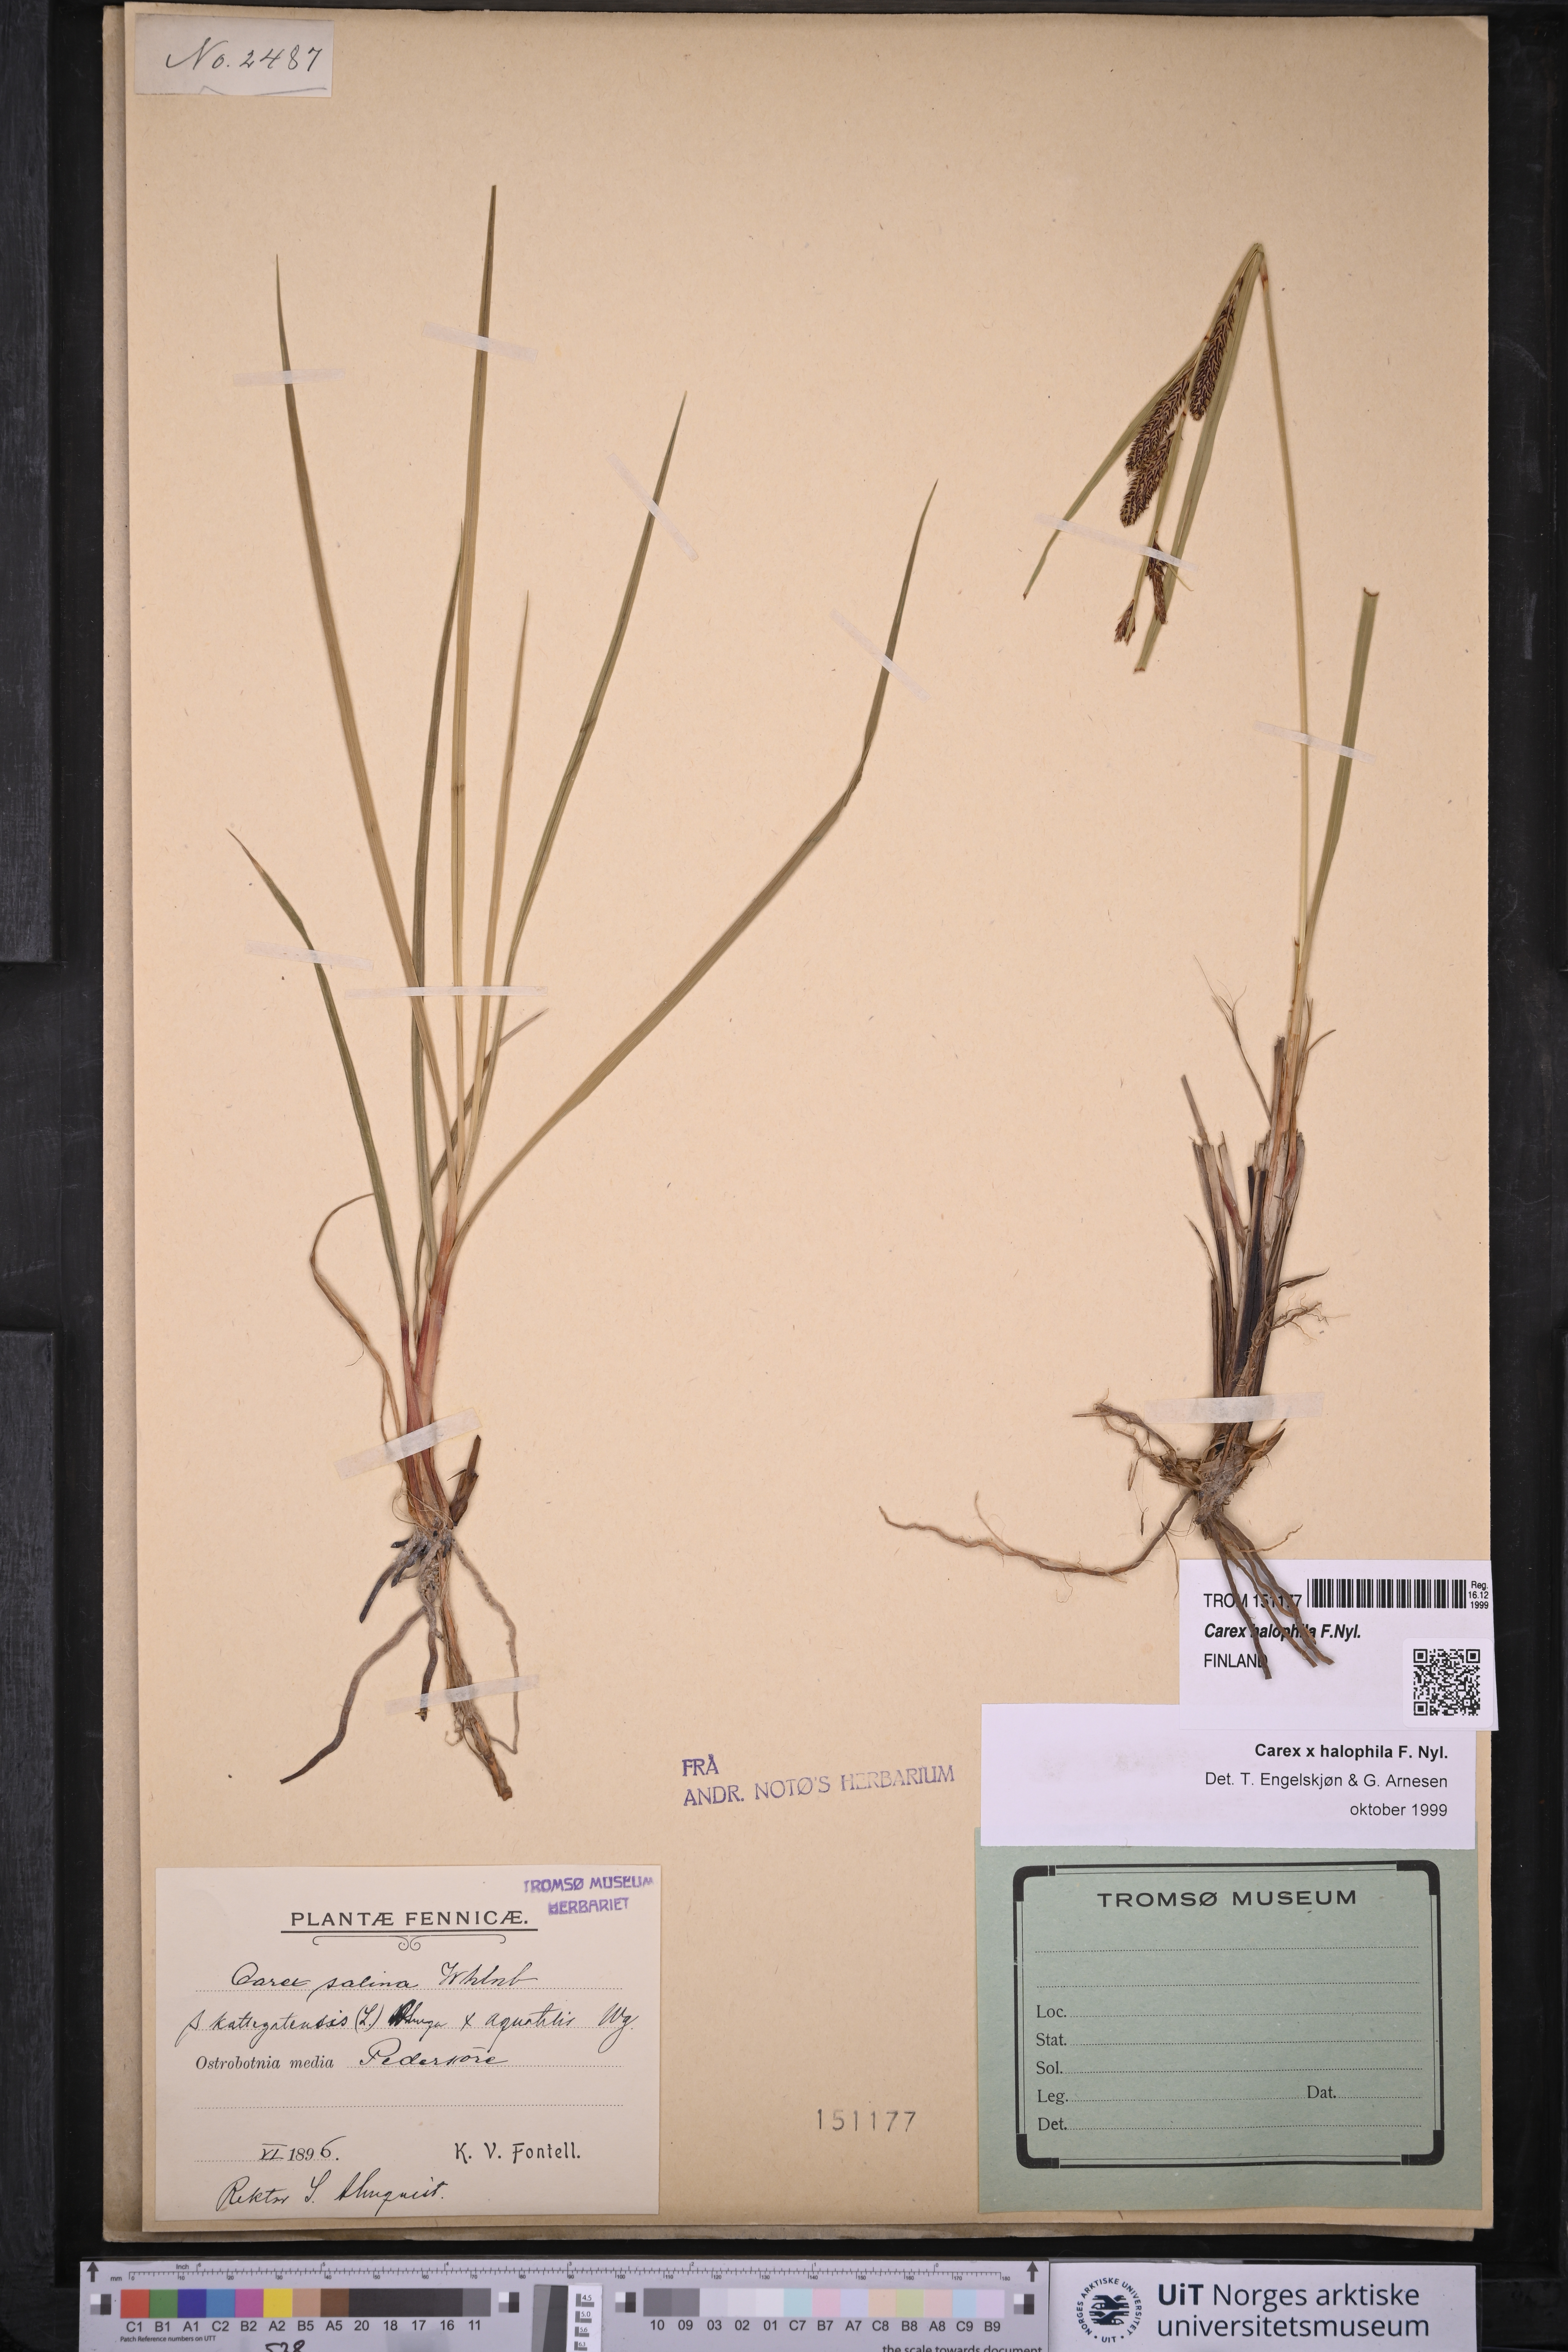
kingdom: Plantae
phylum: Tracheophyta
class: Liliopsida
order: Poales
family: Cyperaceae
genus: Carex
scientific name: Carex halophila
